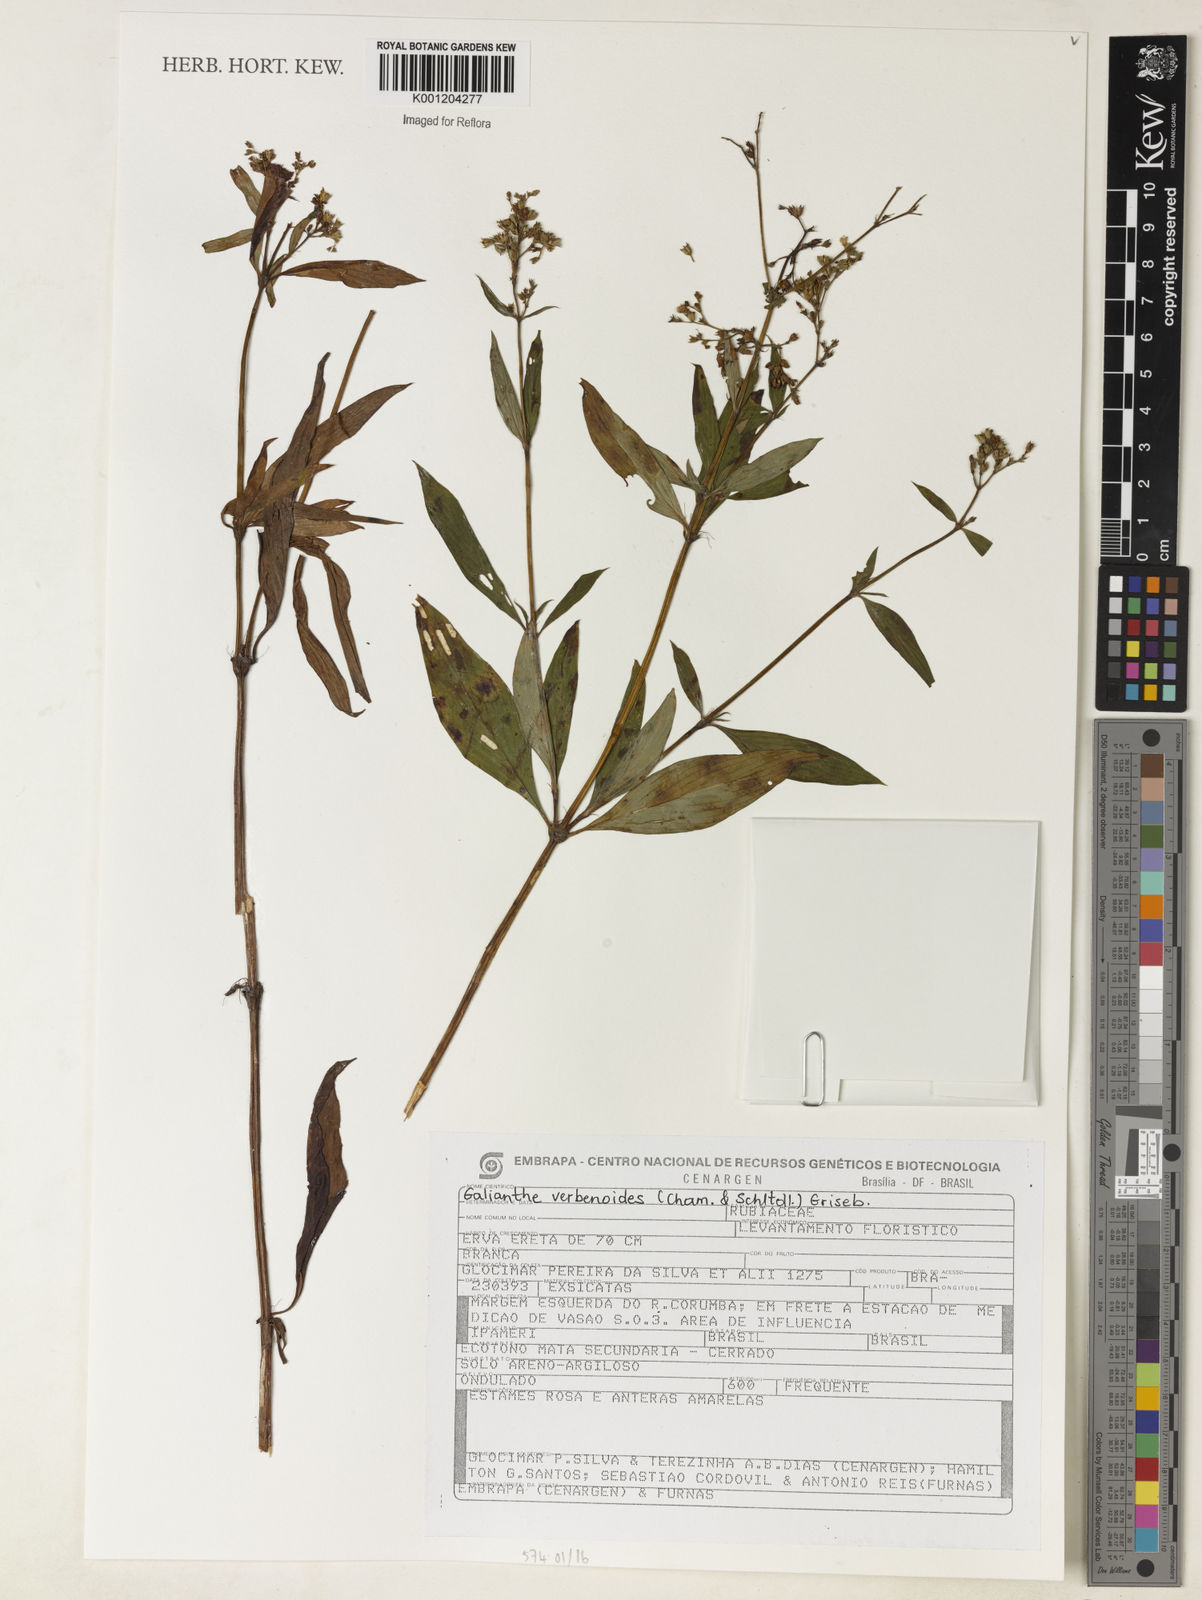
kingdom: Plantae
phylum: Tracheophyta
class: Magnoliopsida
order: Gentianales
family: Rubiaceae
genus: Galianthe
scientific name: Galianthe verbenoides
